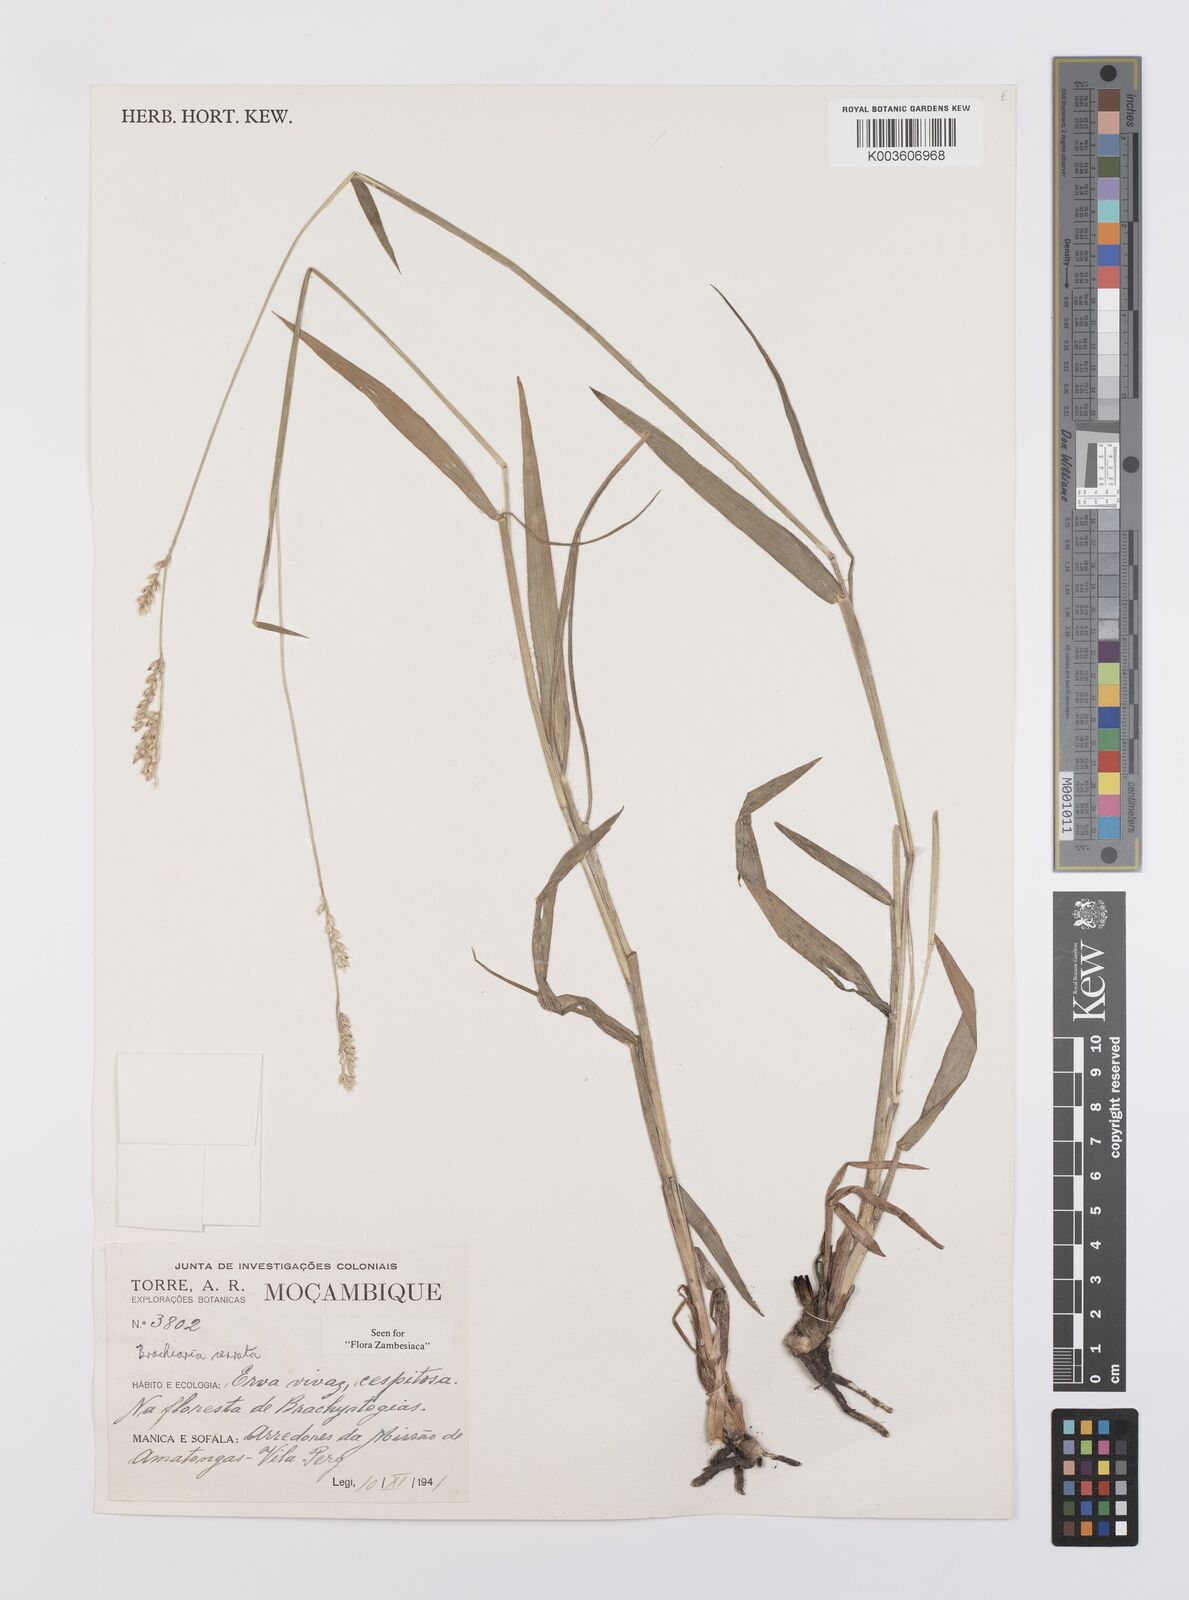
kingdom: Plantae
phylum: Tracheophyta
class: Liliopsida
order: Poales
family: Poaceae
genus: Urochloa
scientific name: Urochloa serrata
